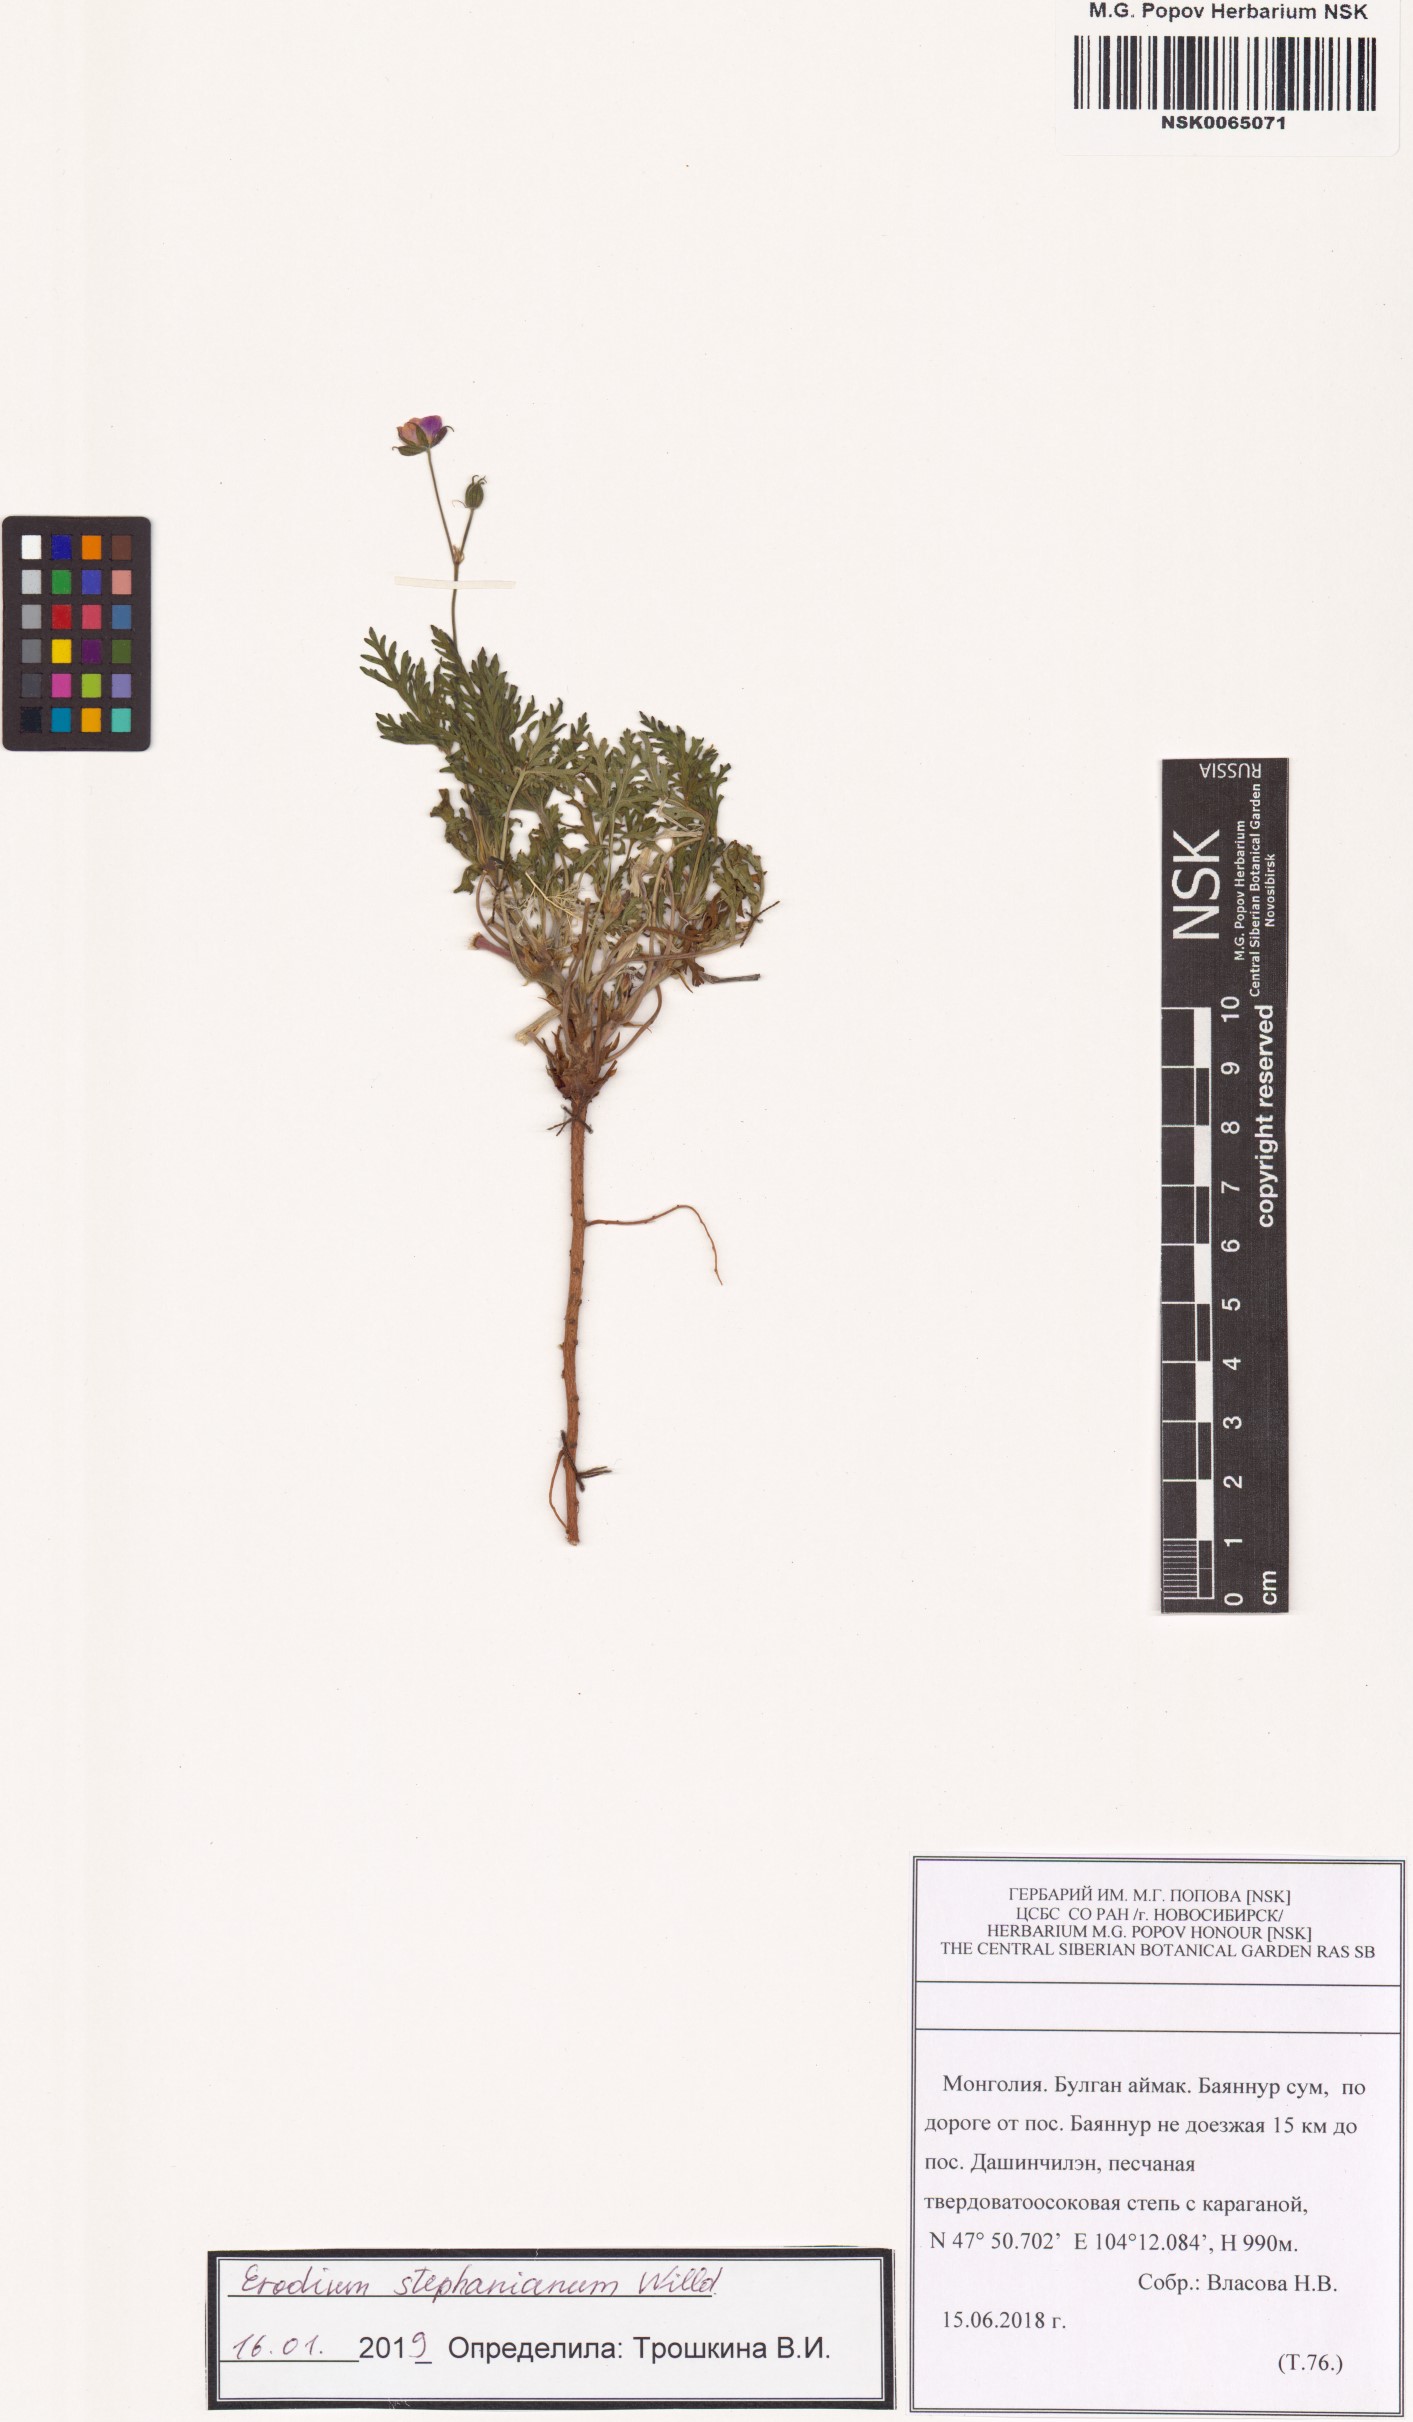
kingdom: Plantae
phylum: Tracheophyta
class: Magnoliopsida
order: Geraniales
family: Geraniaceae
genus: Erodium
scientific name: Erodium stephanianum
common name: Stephen's stork's bill
